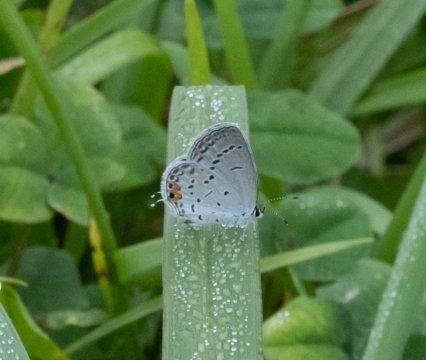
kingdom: Animalia
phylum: Arthropoda
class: Insecta
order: Lepidoptera
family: Lycaenidae
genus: Elkalyce
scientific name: Elkalyce comyntas
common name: Eastern Tailed-Blue
